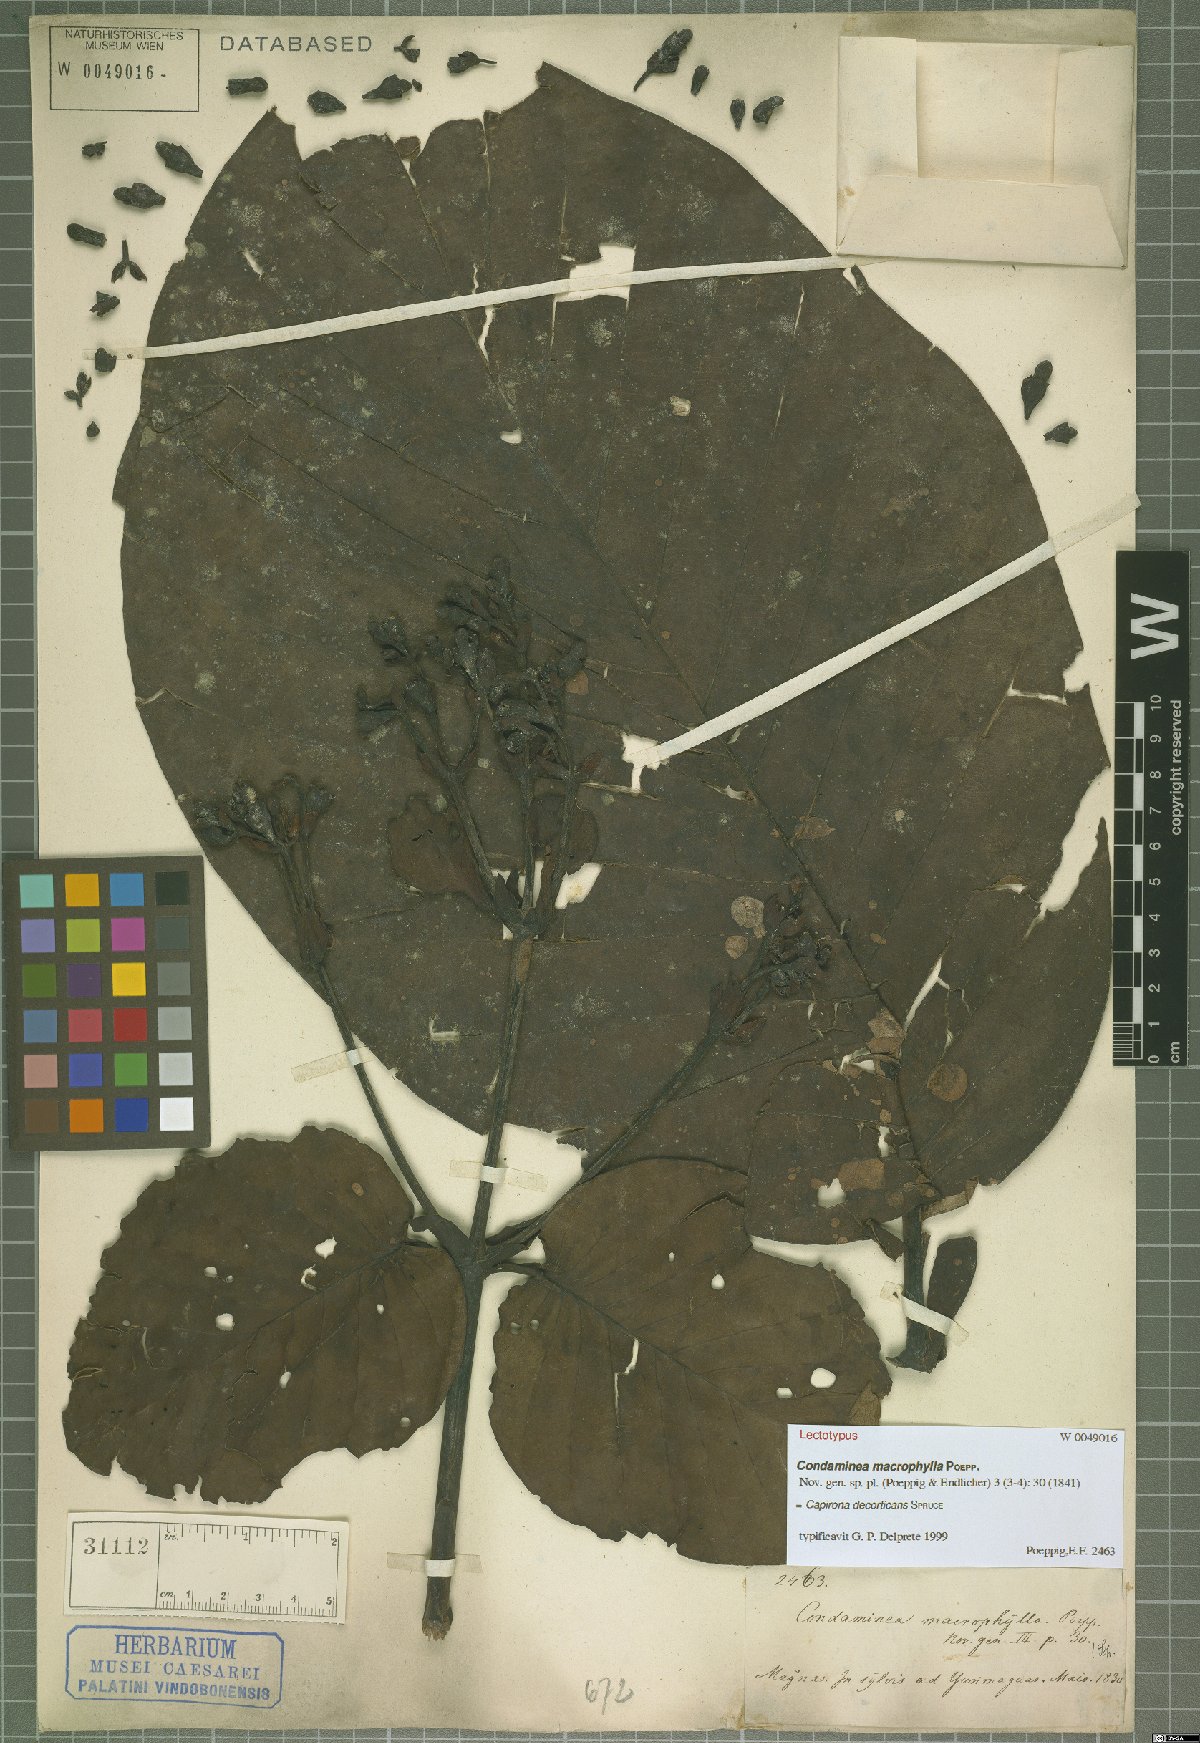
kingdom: Plantae
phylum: Tracheophyta
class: Magnoliopsida
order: Gentianales
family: Rubiaceae
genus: Capirona
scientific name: Capirona macrophylla
